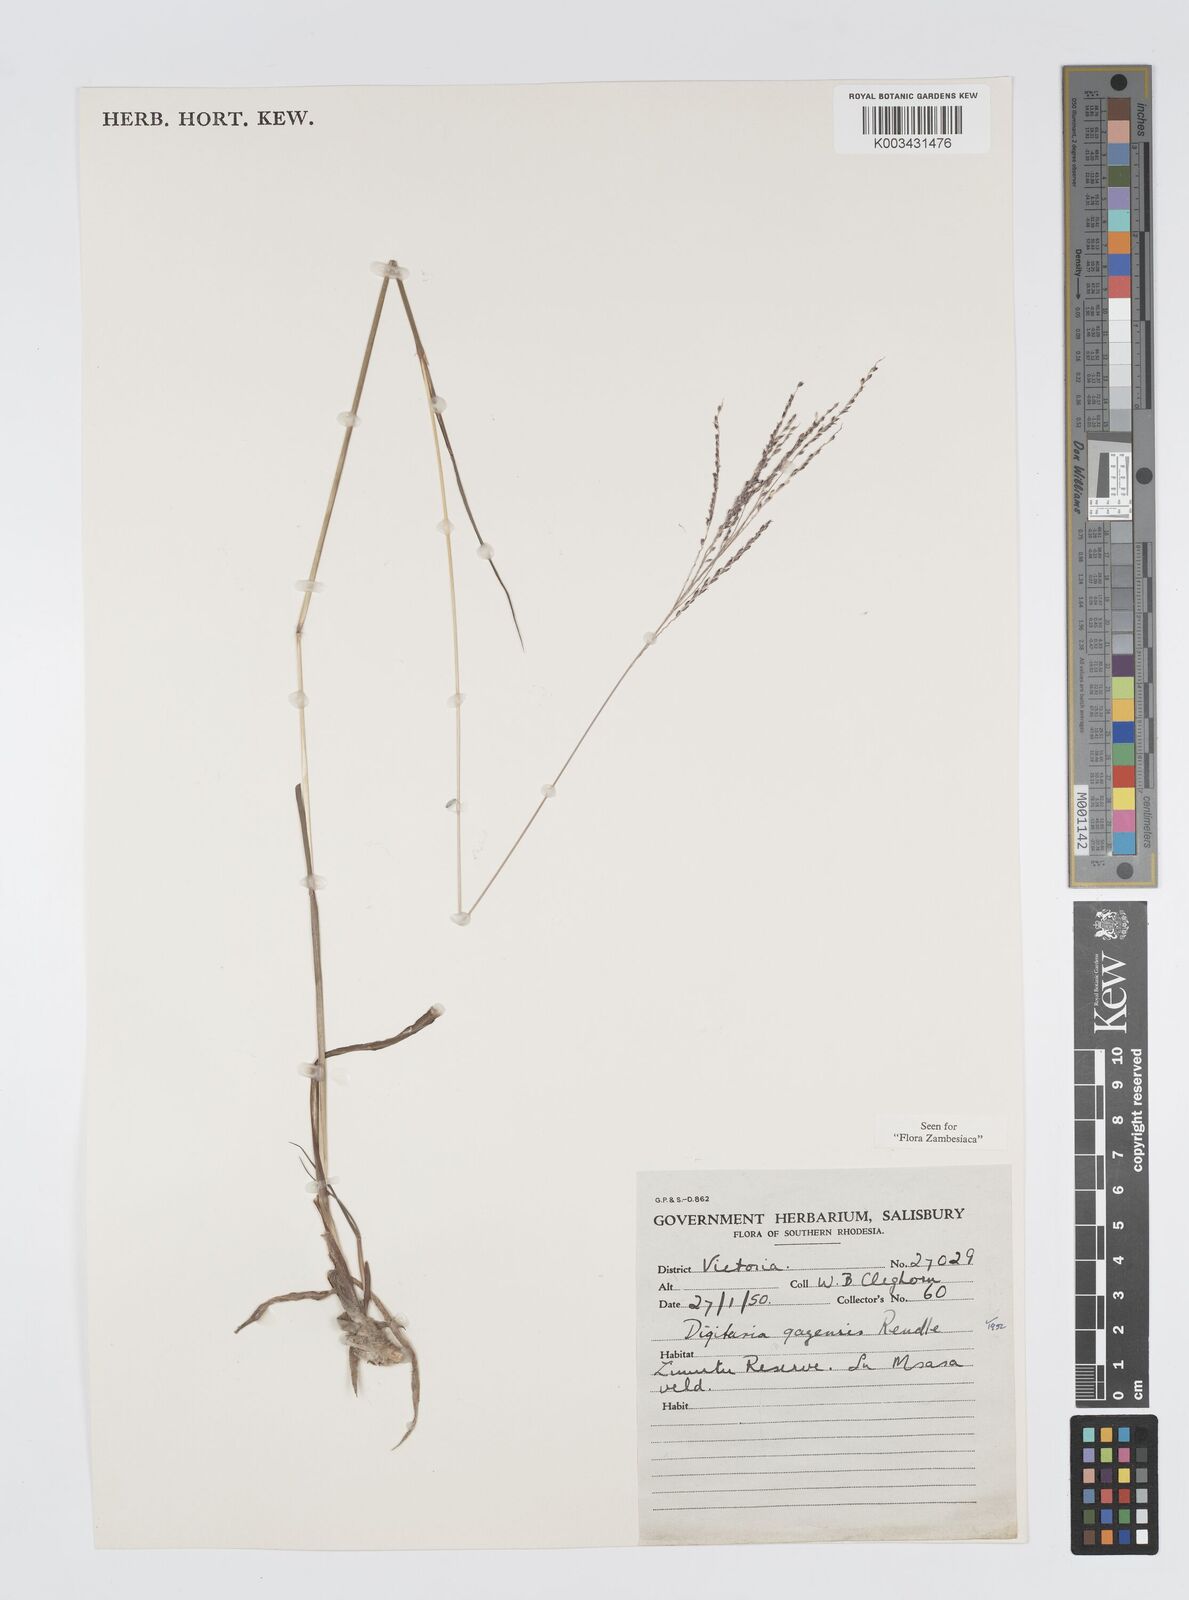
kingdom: Plantae
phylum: Tracheophyta
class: Liliopsida
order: Poales
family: Poaceae
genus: Digitaria
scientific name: Digitaria gazensis
